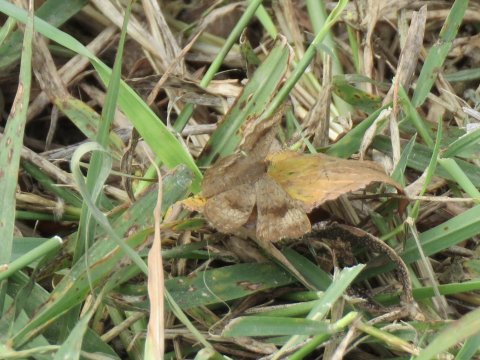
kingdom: Animalia
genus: Calephelis
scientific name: Calephelis nemesis
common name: Fatal Metalmark
